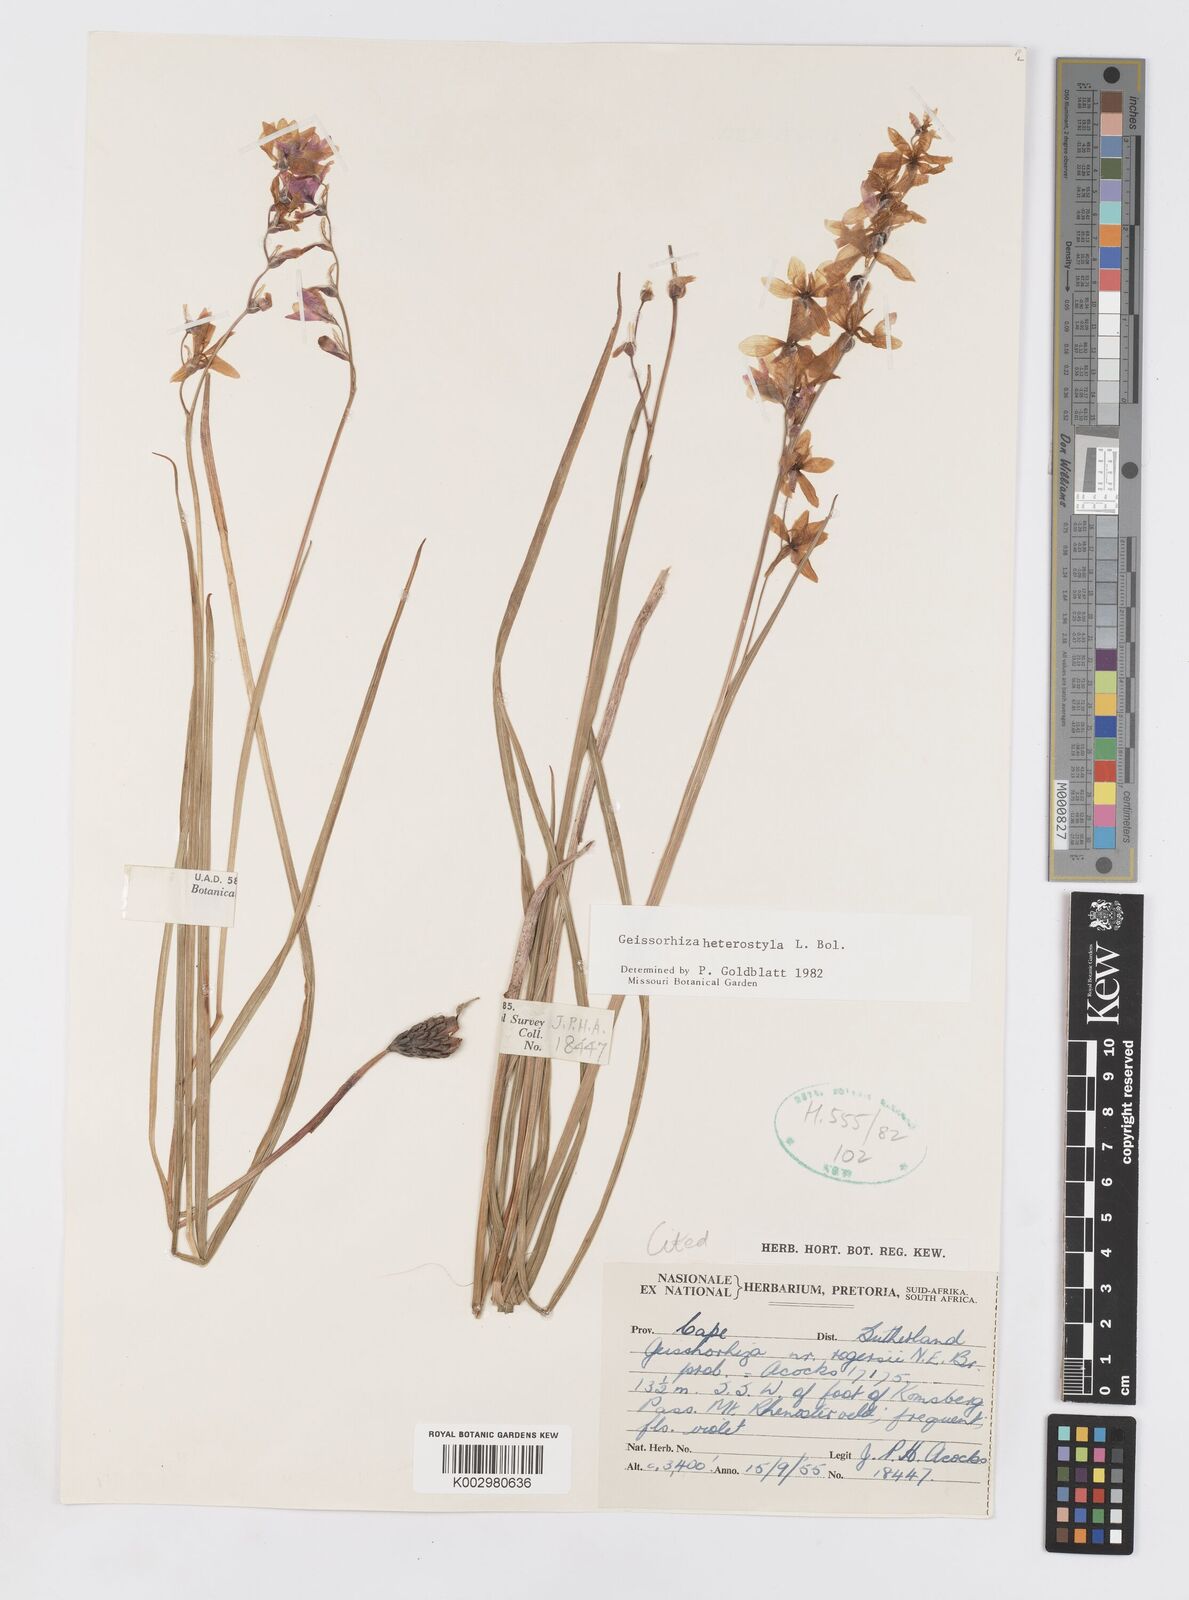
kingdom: Plantae
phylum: Tracheophyta
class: Liliopsida
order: Asparagales
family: Iridaceae
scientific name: Iridaceae
